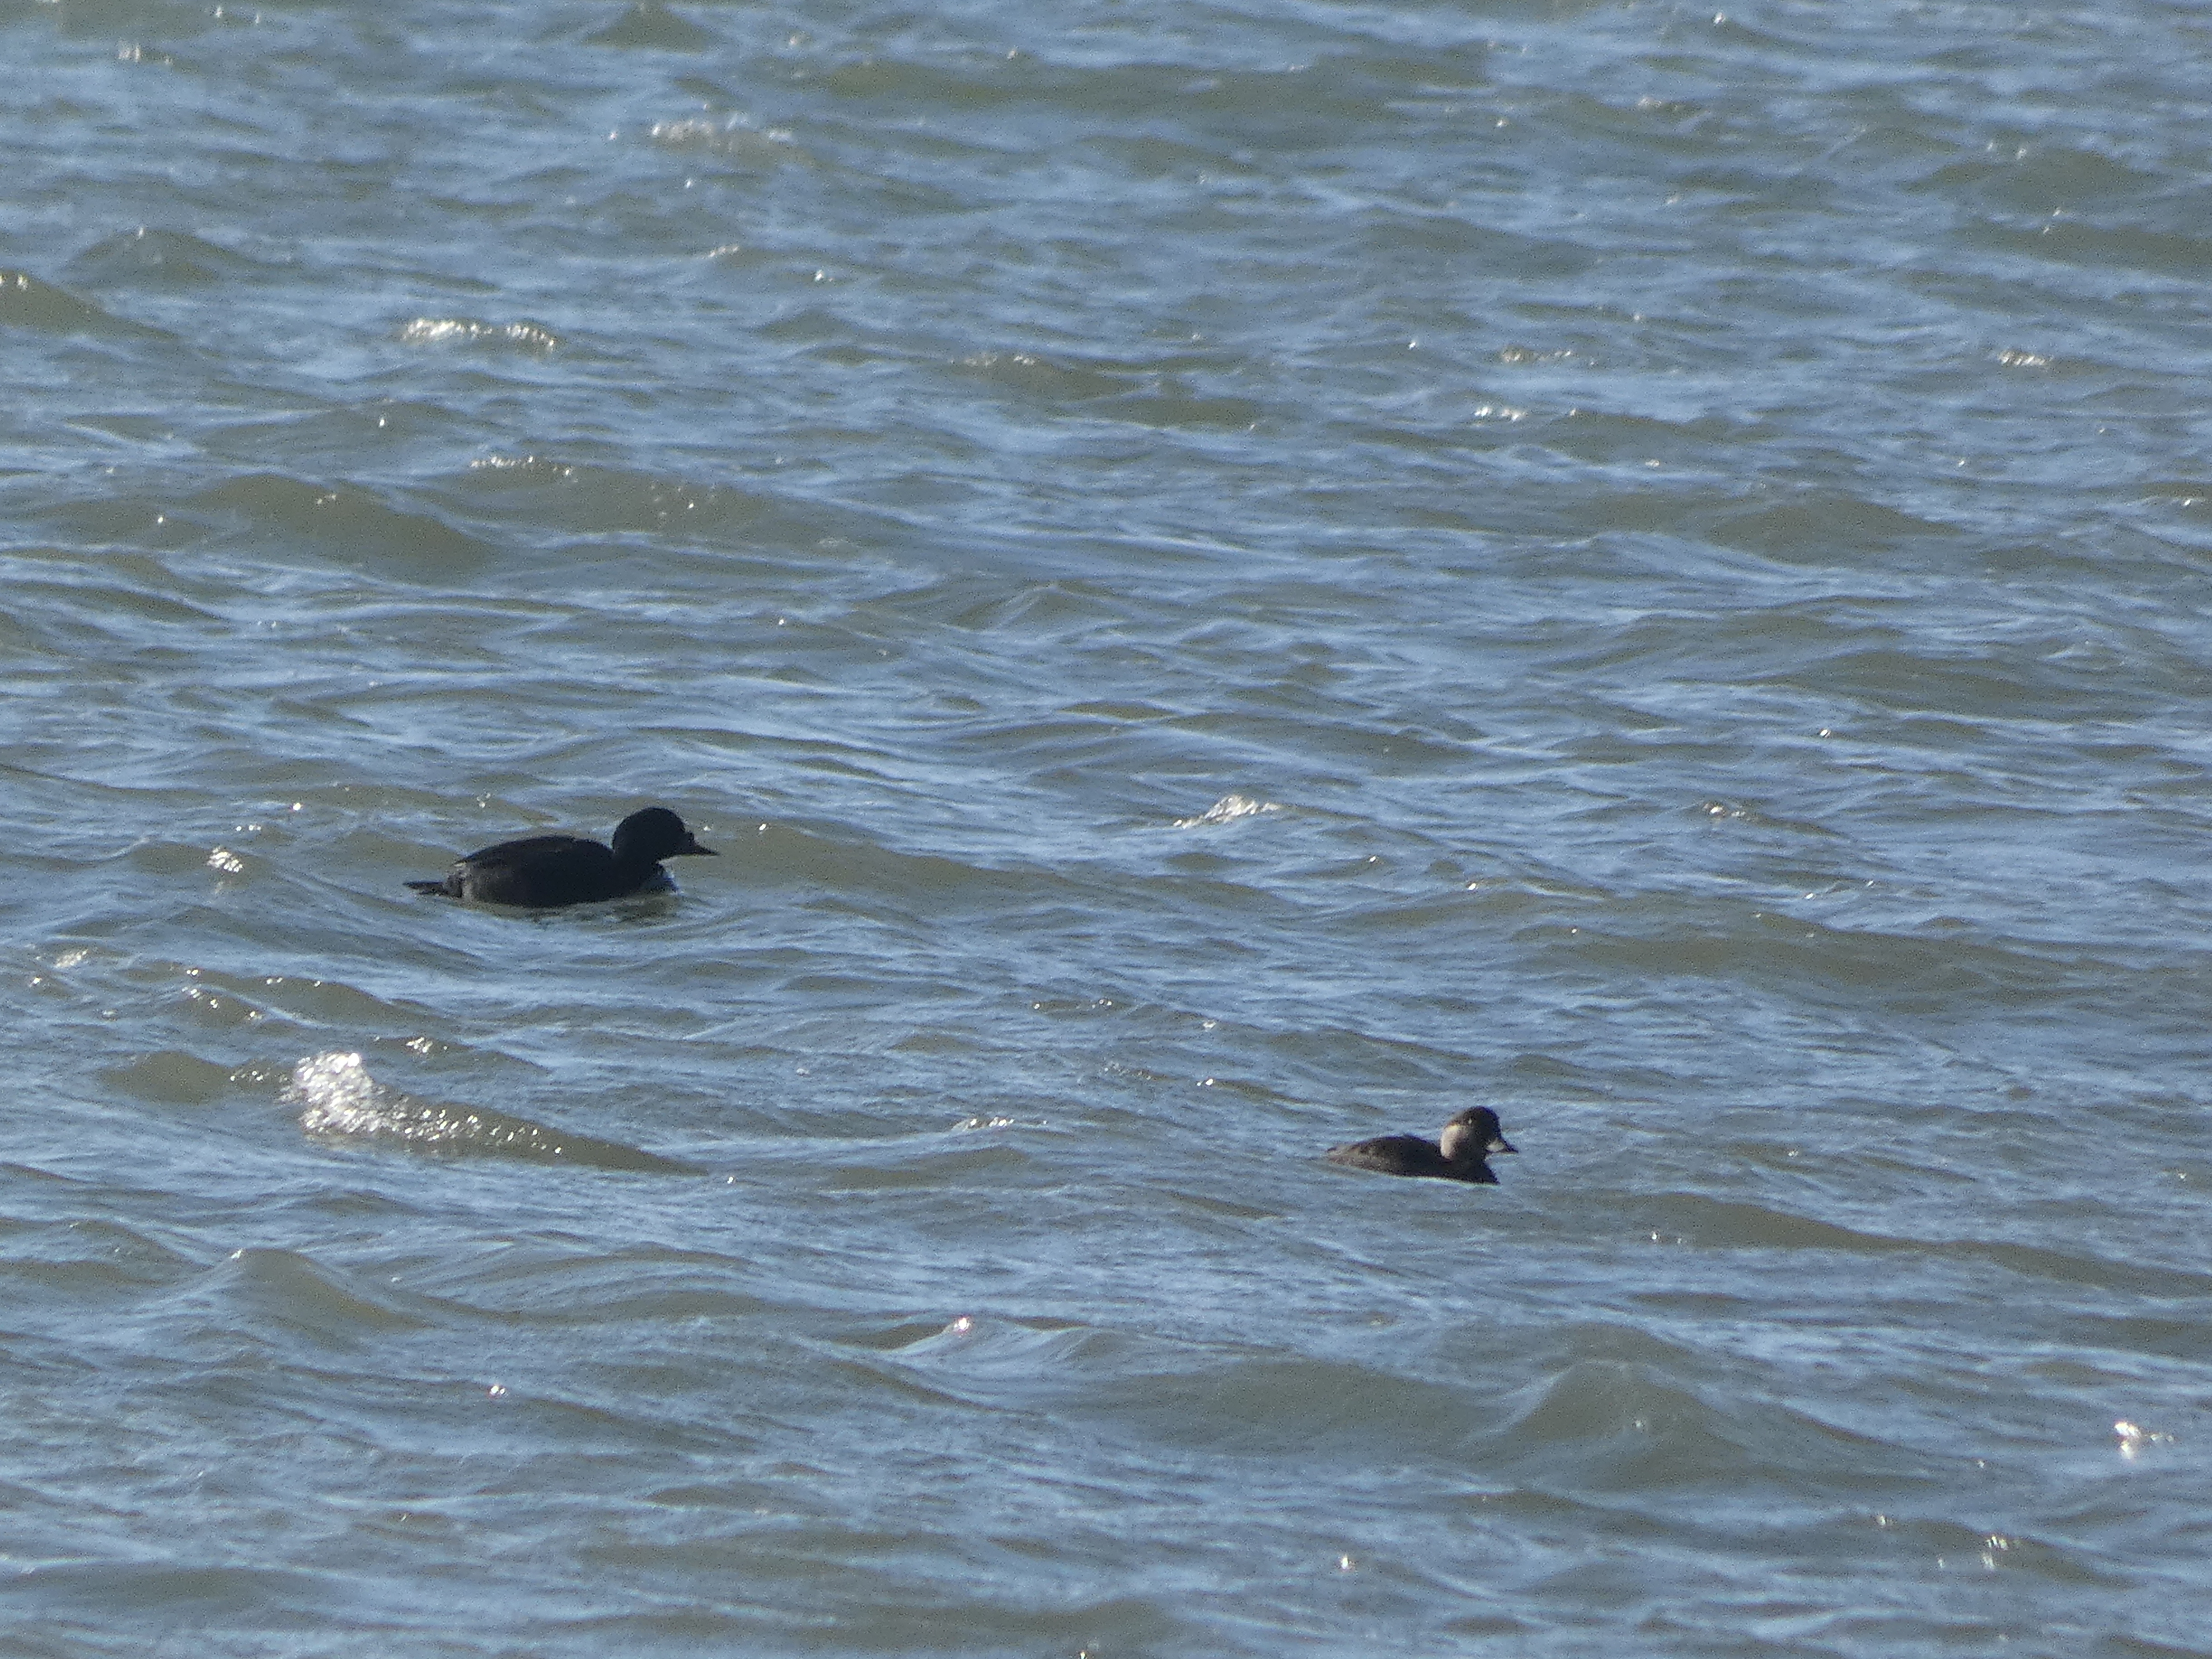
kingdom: Animalia
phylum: Chordata
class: Aves
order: Anseriformes
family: Anatidae
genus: Melanitta
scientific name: Melanitta nigra
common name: Sortand
